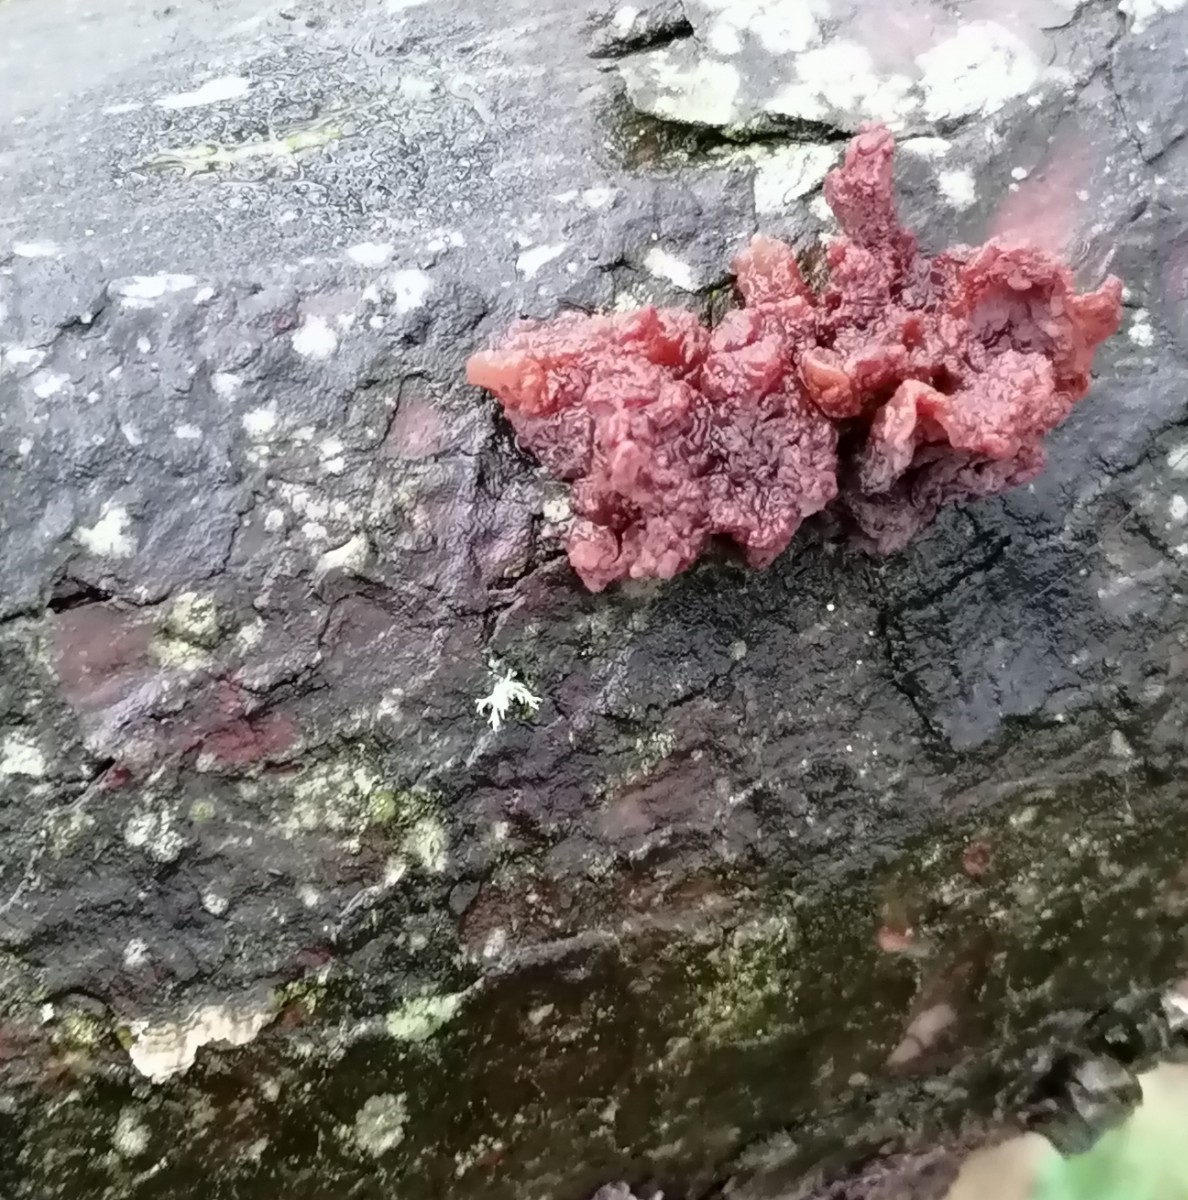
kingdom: Fungi
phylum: Basidiomycota
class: Tremellomycetes
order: Tremellales
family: Tremellaceae
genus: Phaeotremella
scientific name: Phaeotremella foliacea
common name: brun bævresvamp
